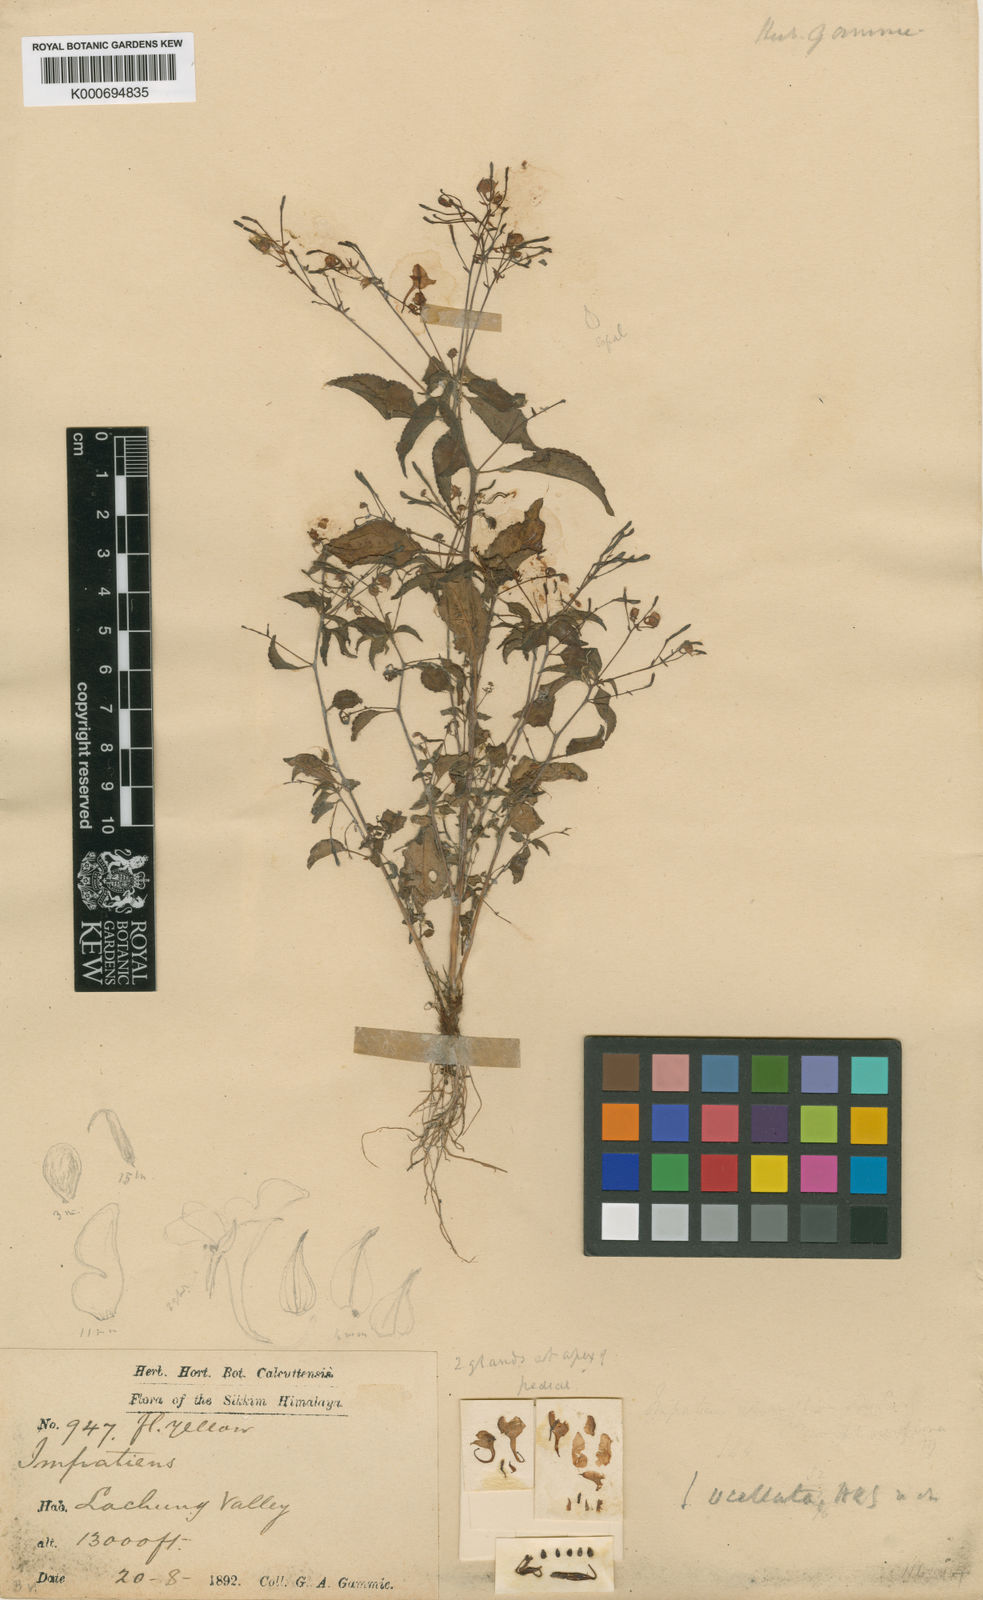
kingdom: Plantae
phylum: Tracheophyta
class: Magnoliopsida
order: Ericales
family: Balsaminaceae
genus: Impatiens
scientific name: Impatiens
